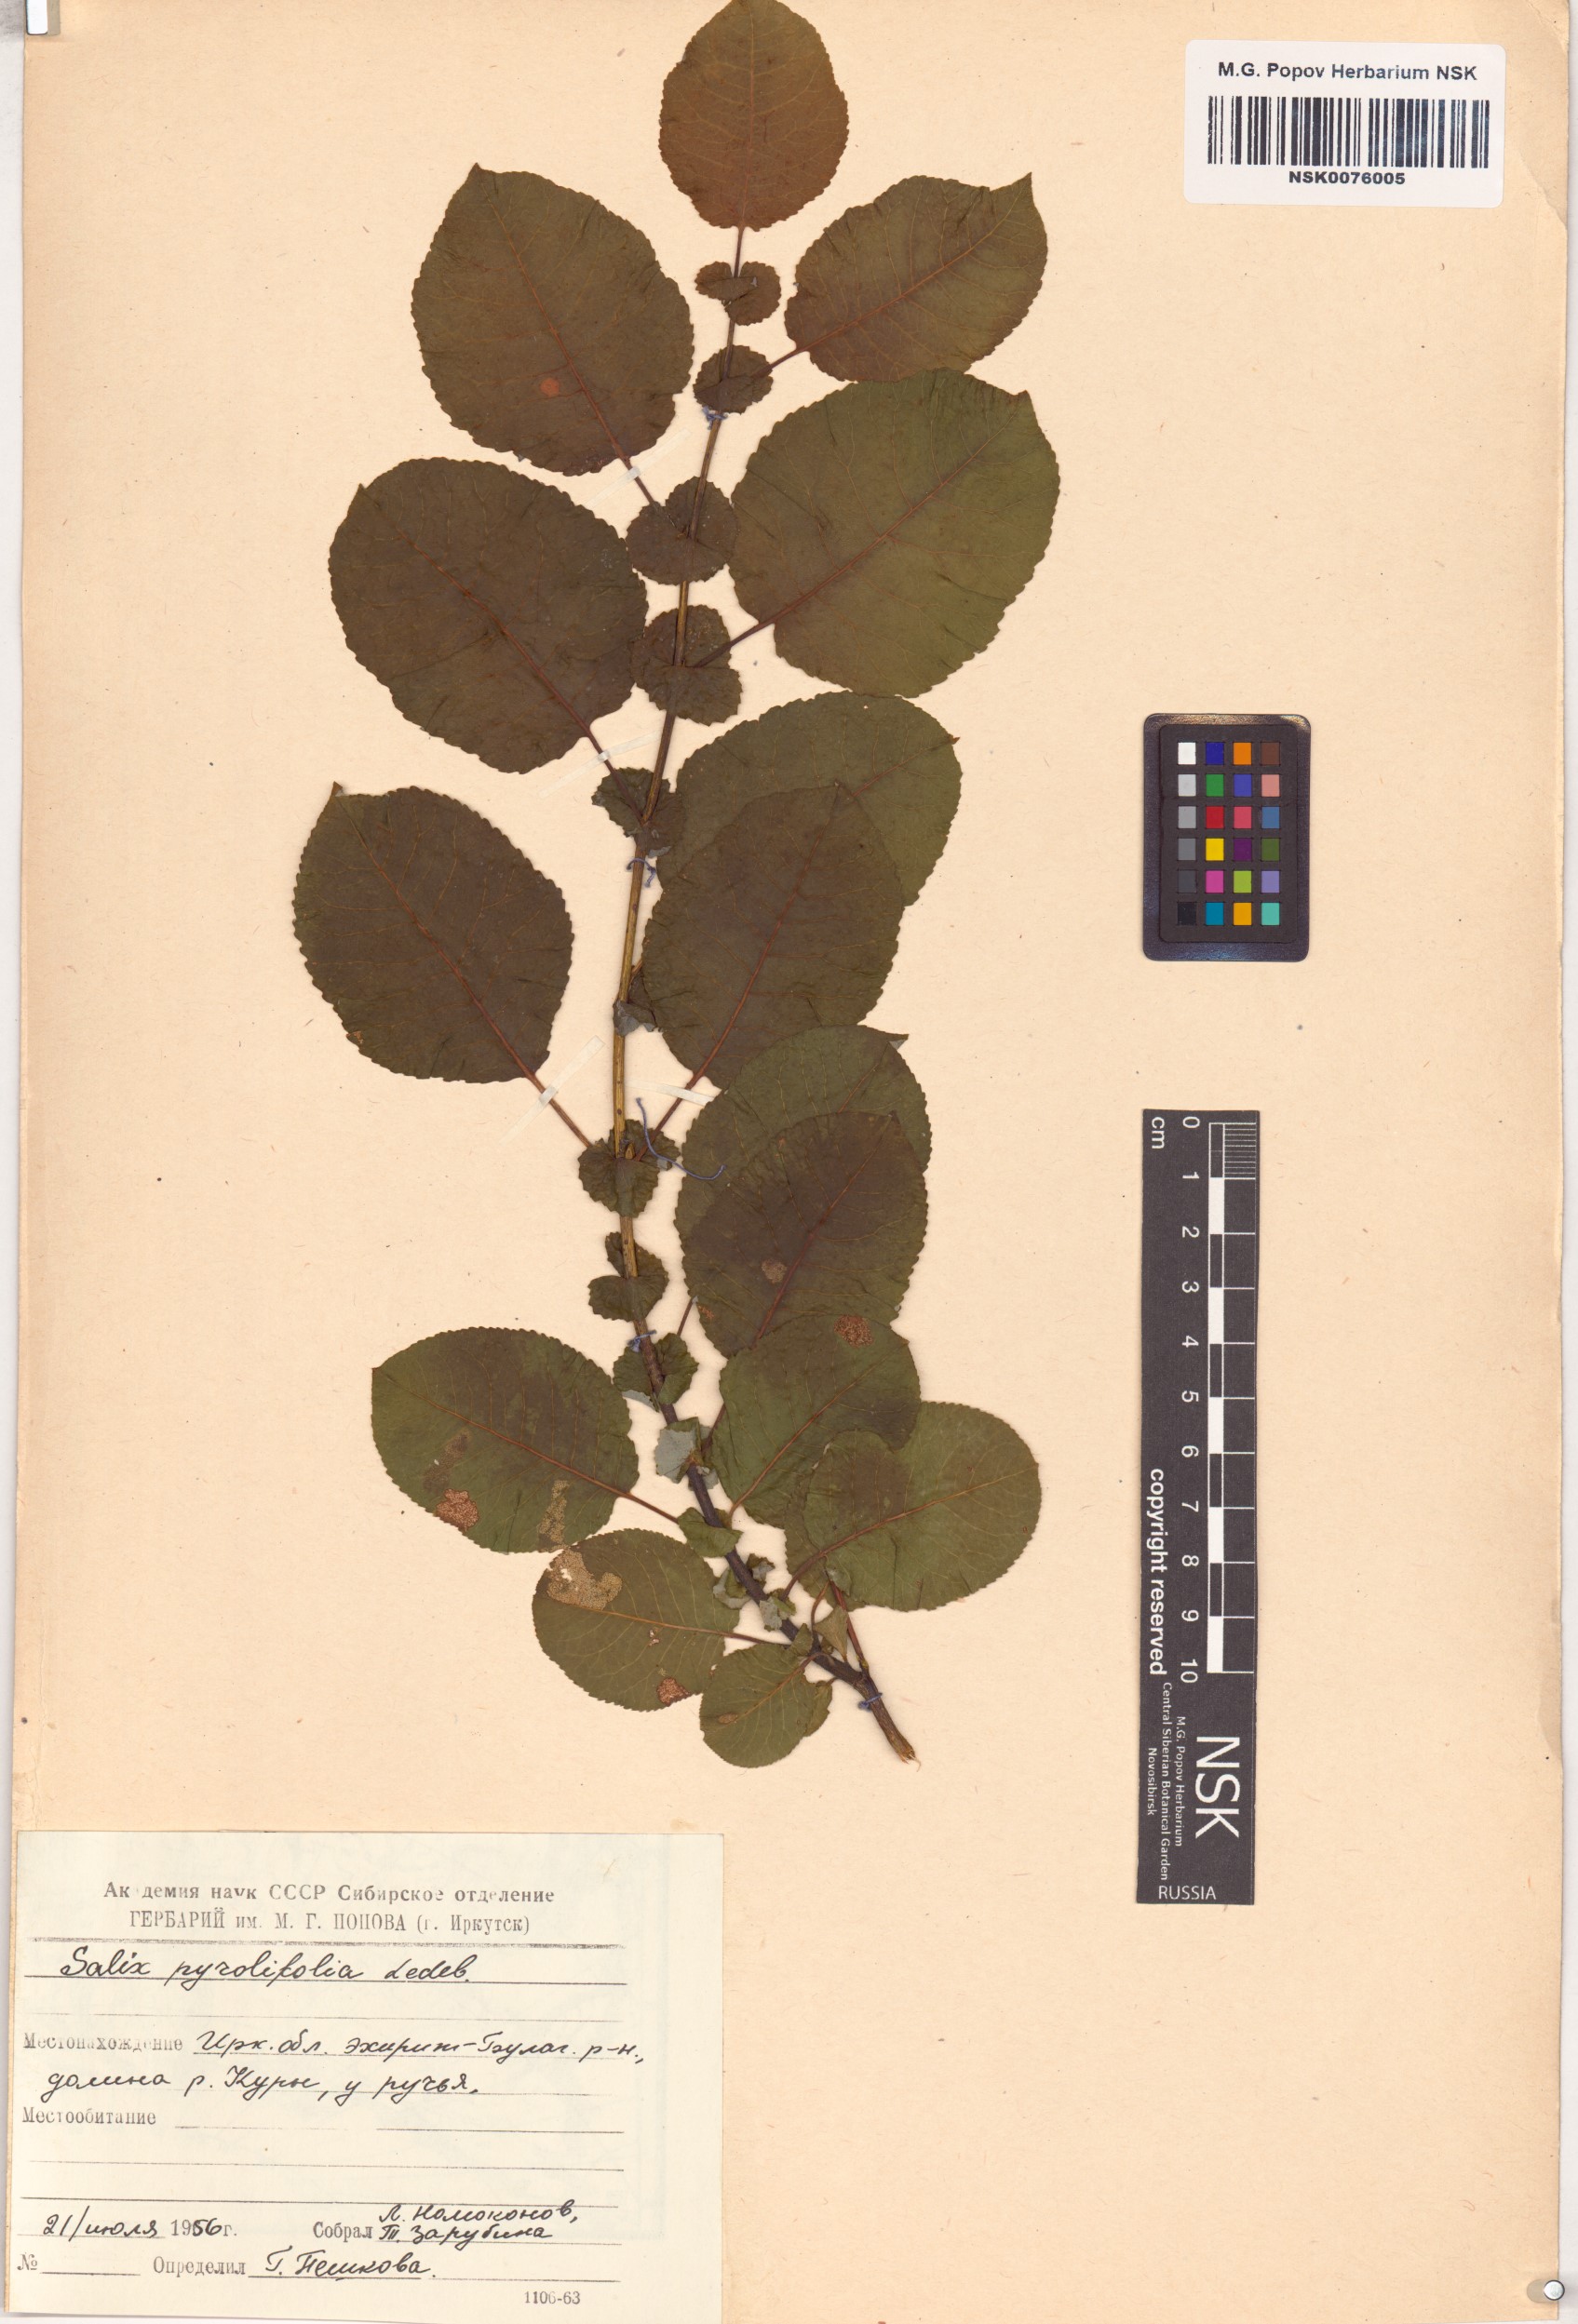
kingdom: Plantae
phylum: Tracheophyta
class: Magnoliopsida
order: Malpighiales
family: Salicaceae
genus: Salix
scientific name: Salix pyrolifolia
